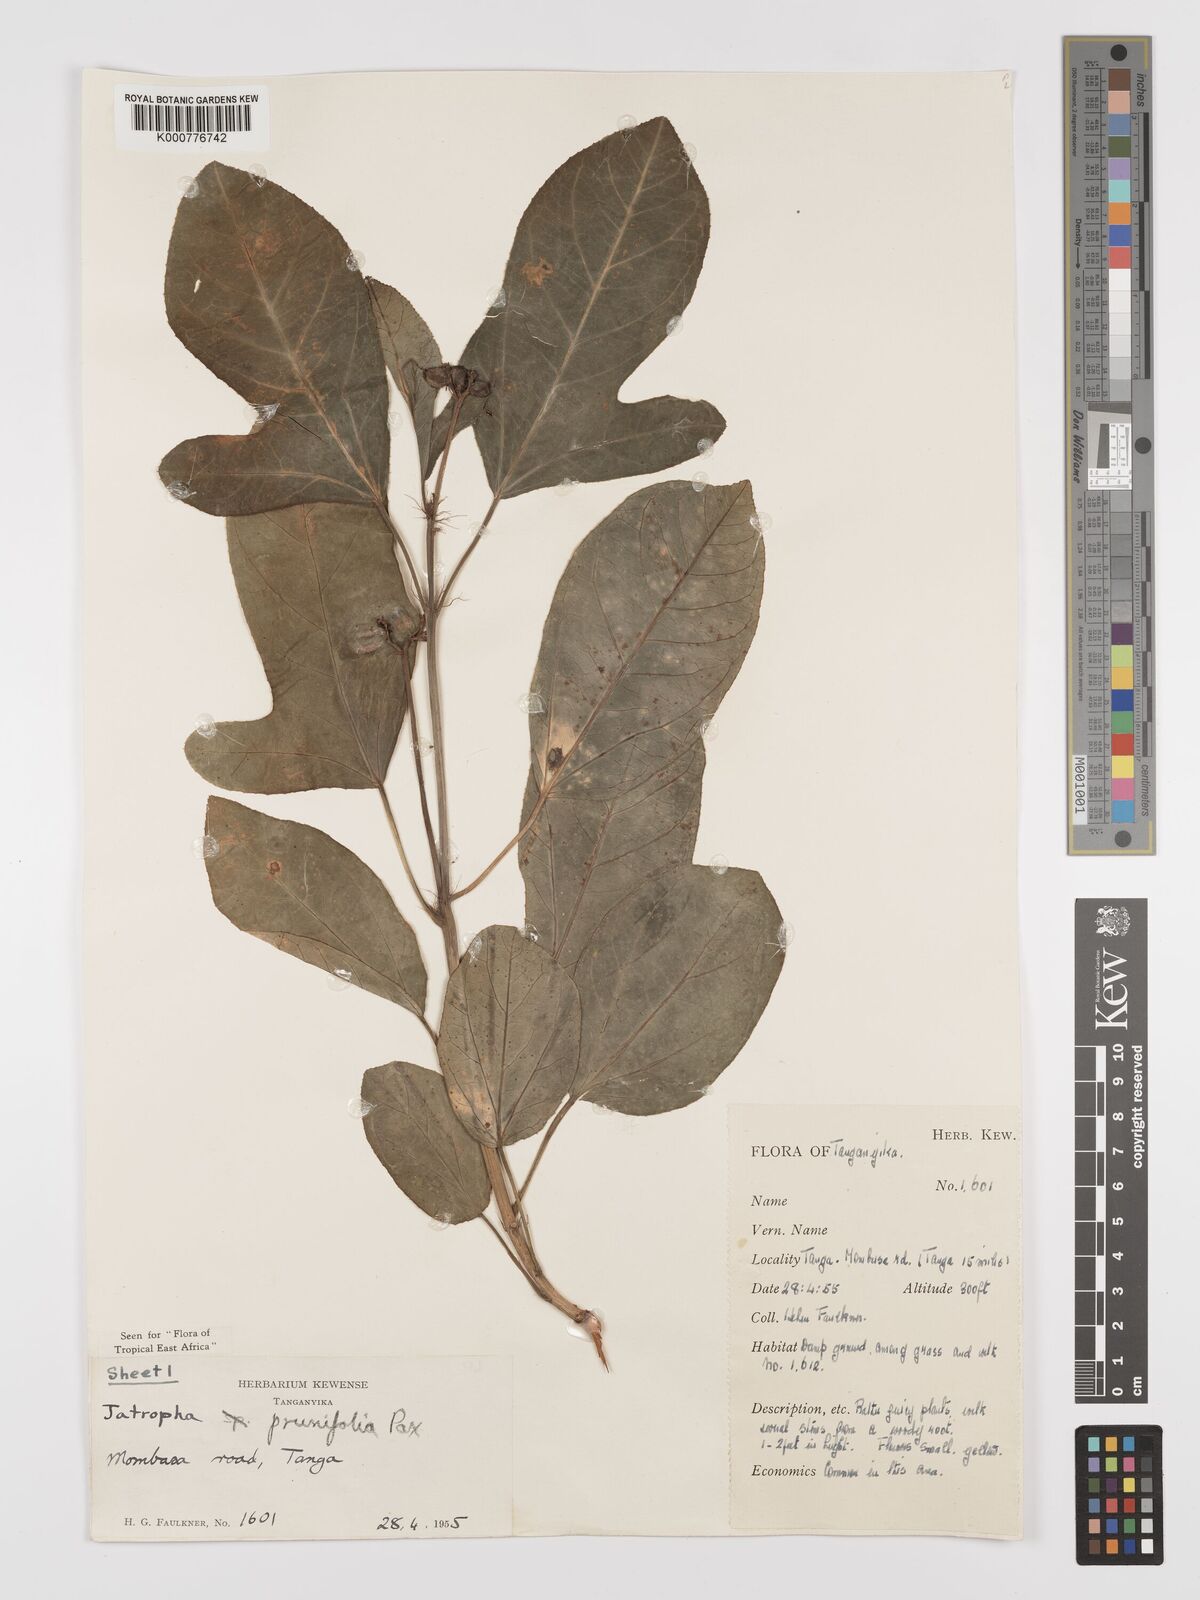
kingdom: Plantae
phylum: Tracheophyta
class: Magnoliopsida
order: Malpighiales
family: Euphorbiaceae
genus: Jatropha
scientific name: Jatropha
